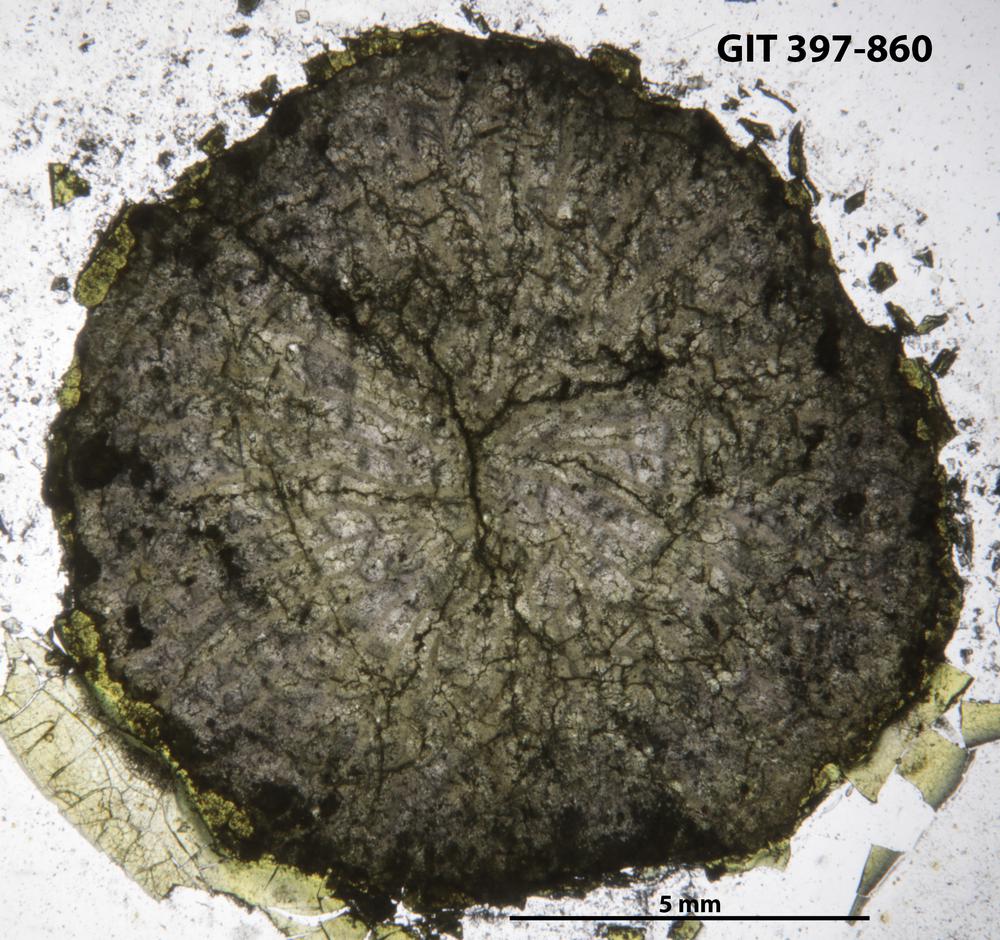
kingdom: Animalia
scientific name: Animalia
